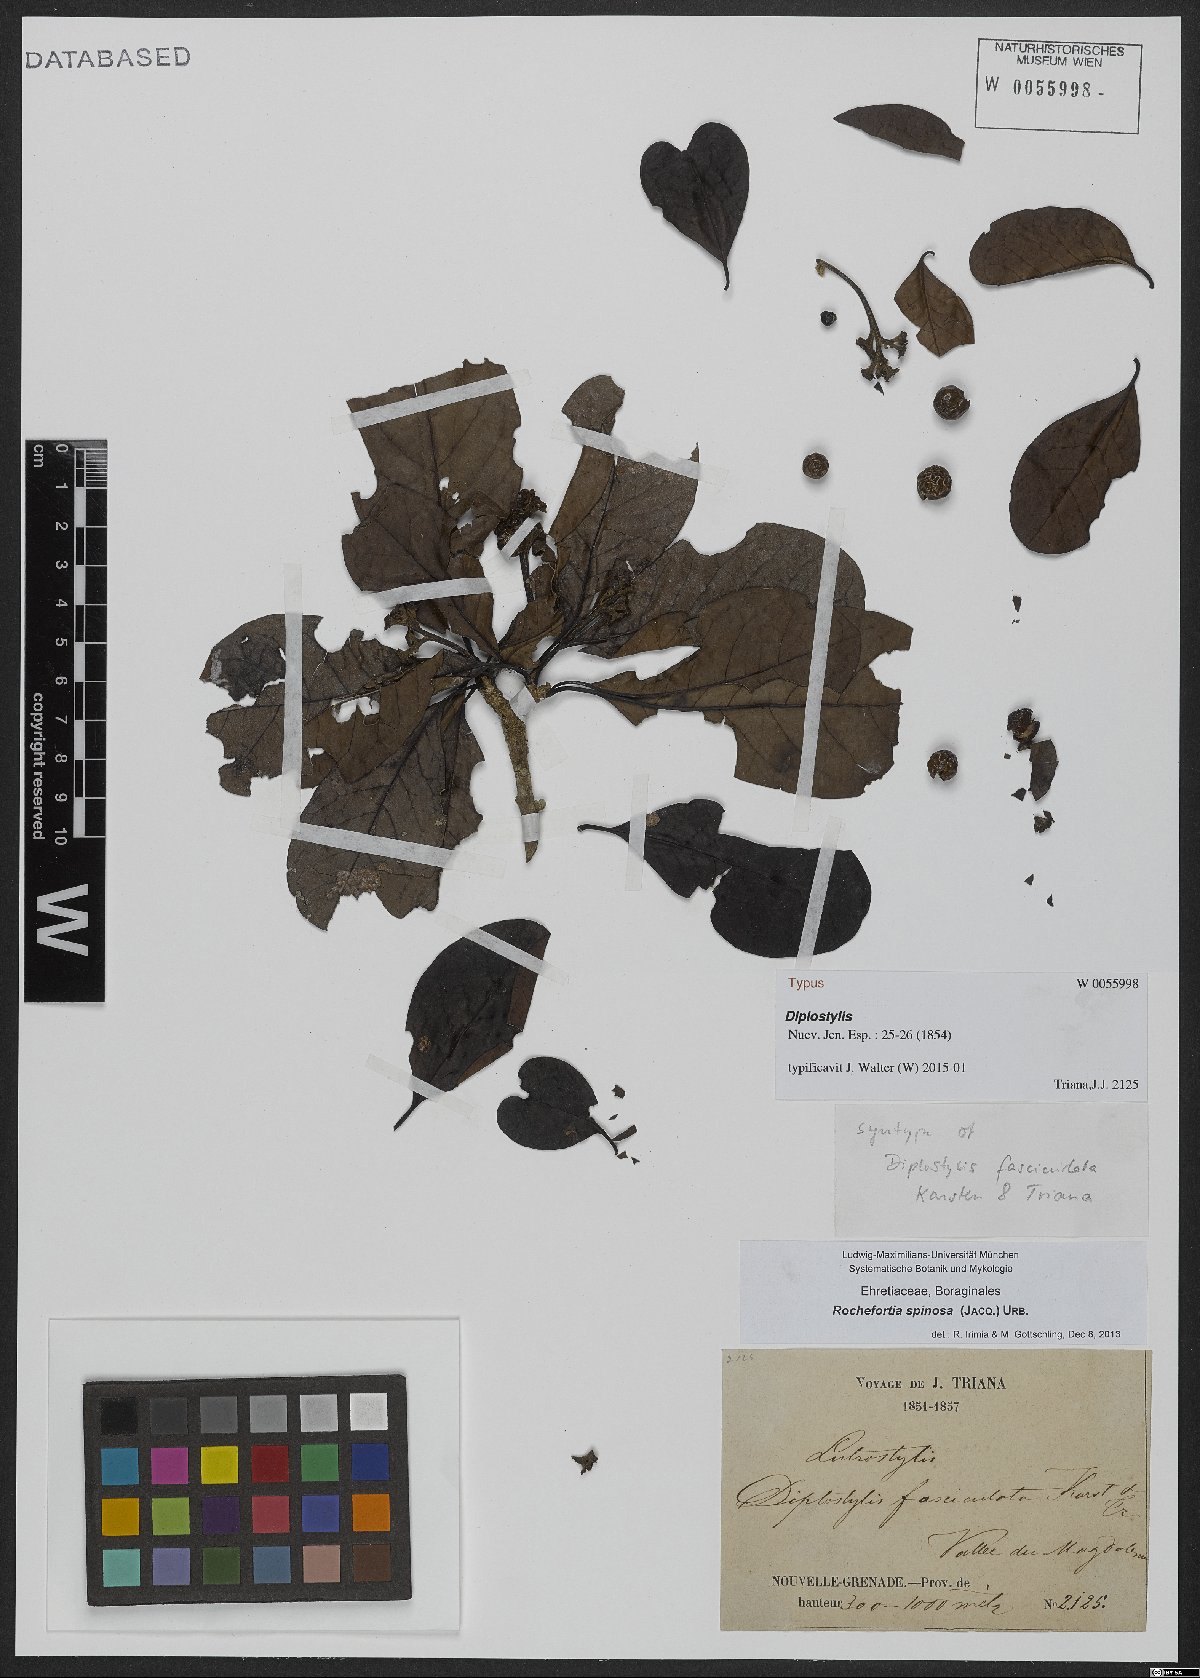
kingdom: Plantae
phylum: Tracheophyta
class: Magnoliopsida
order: Boraginales
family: Ehretiaceae
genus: Rochefortia
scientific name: Rochefortia spinosa
